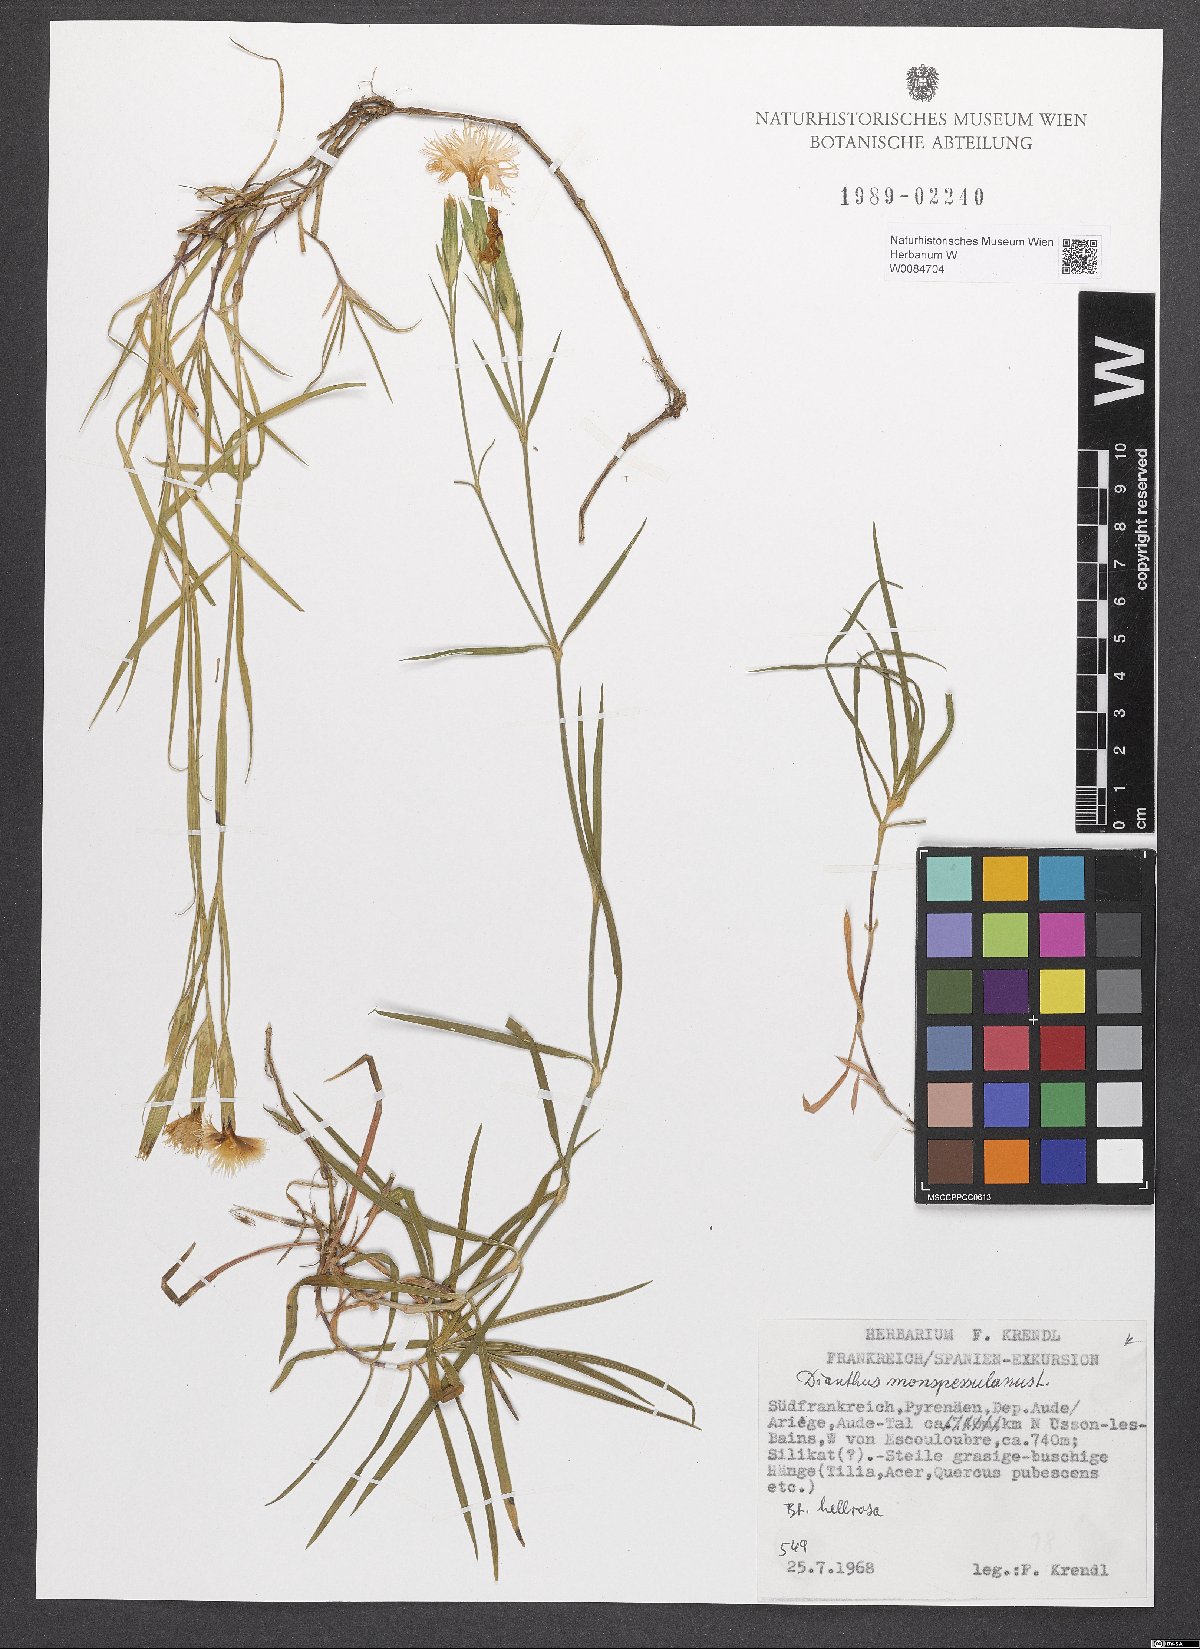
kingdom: Plantae
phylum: Tracheophyta
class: Magnoliopsida
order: Caryophyllales
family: Caryophyllaceae
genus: Dianthus
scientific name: Dianthus hyssopifolius
